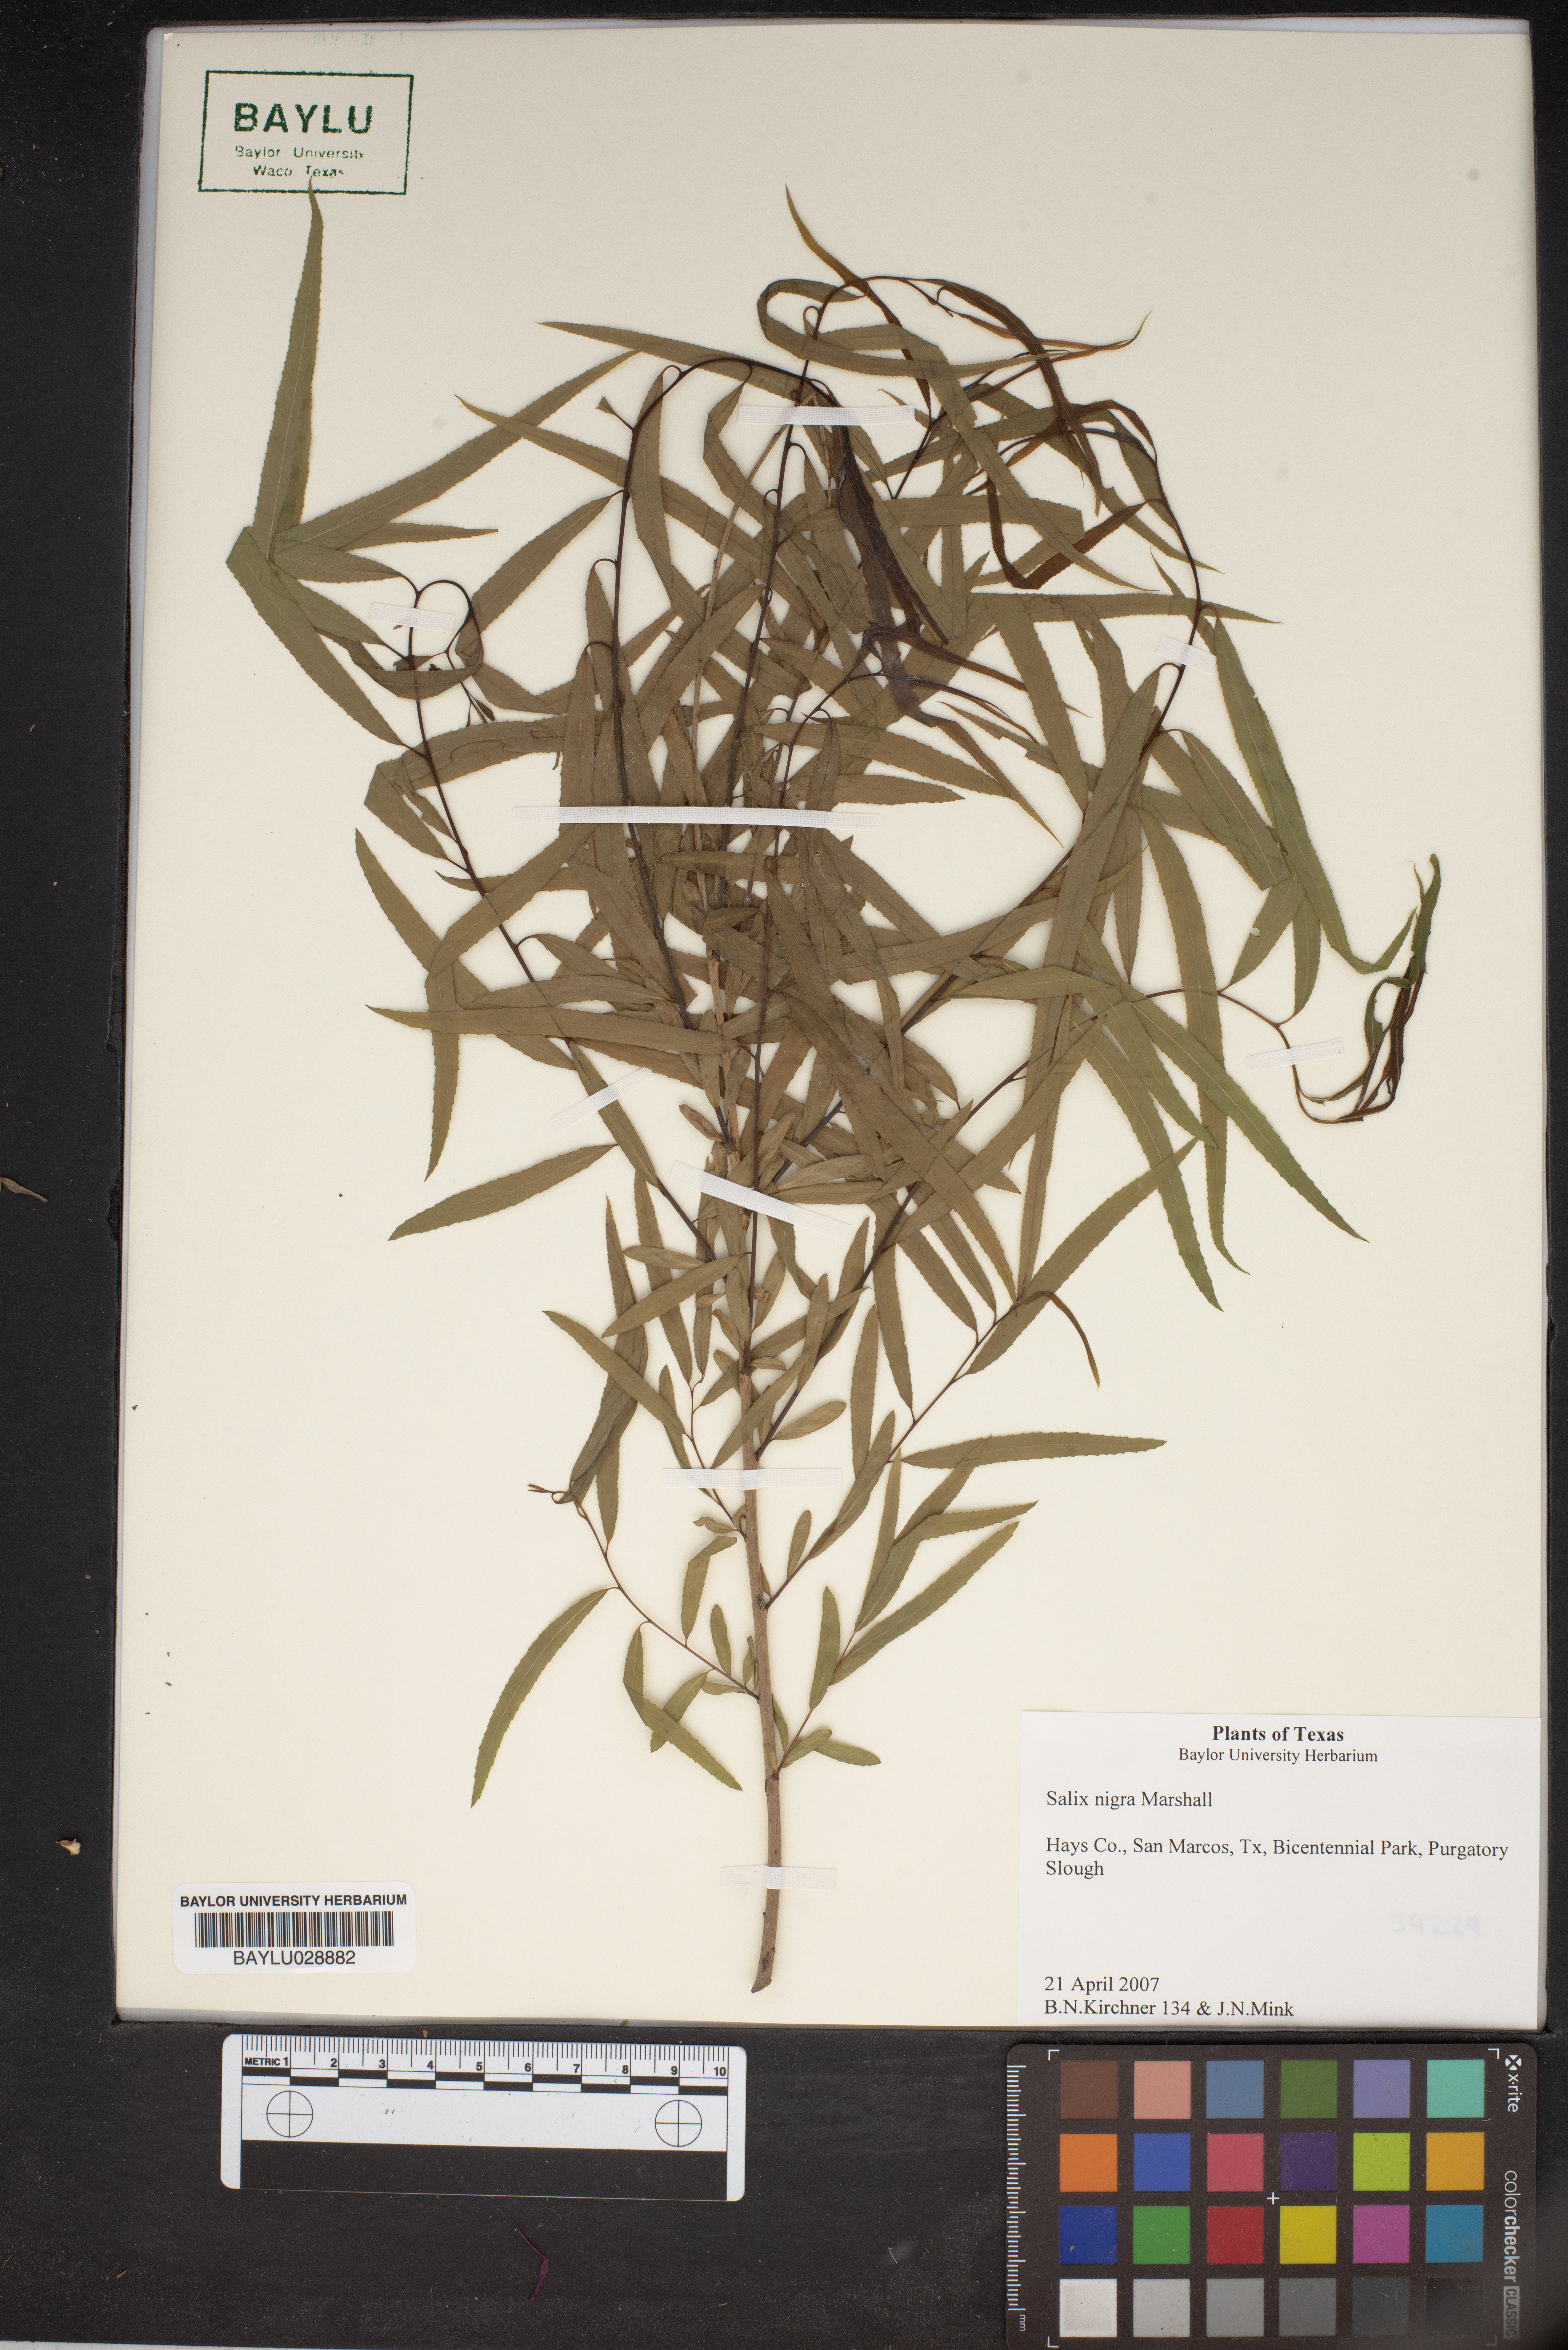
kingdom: Plantae
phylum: Tracheophyta
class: Magnoliopsida
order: Malpighiales
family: Salicaceae
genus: Salix
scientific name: Salix nigra
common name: Black willow
